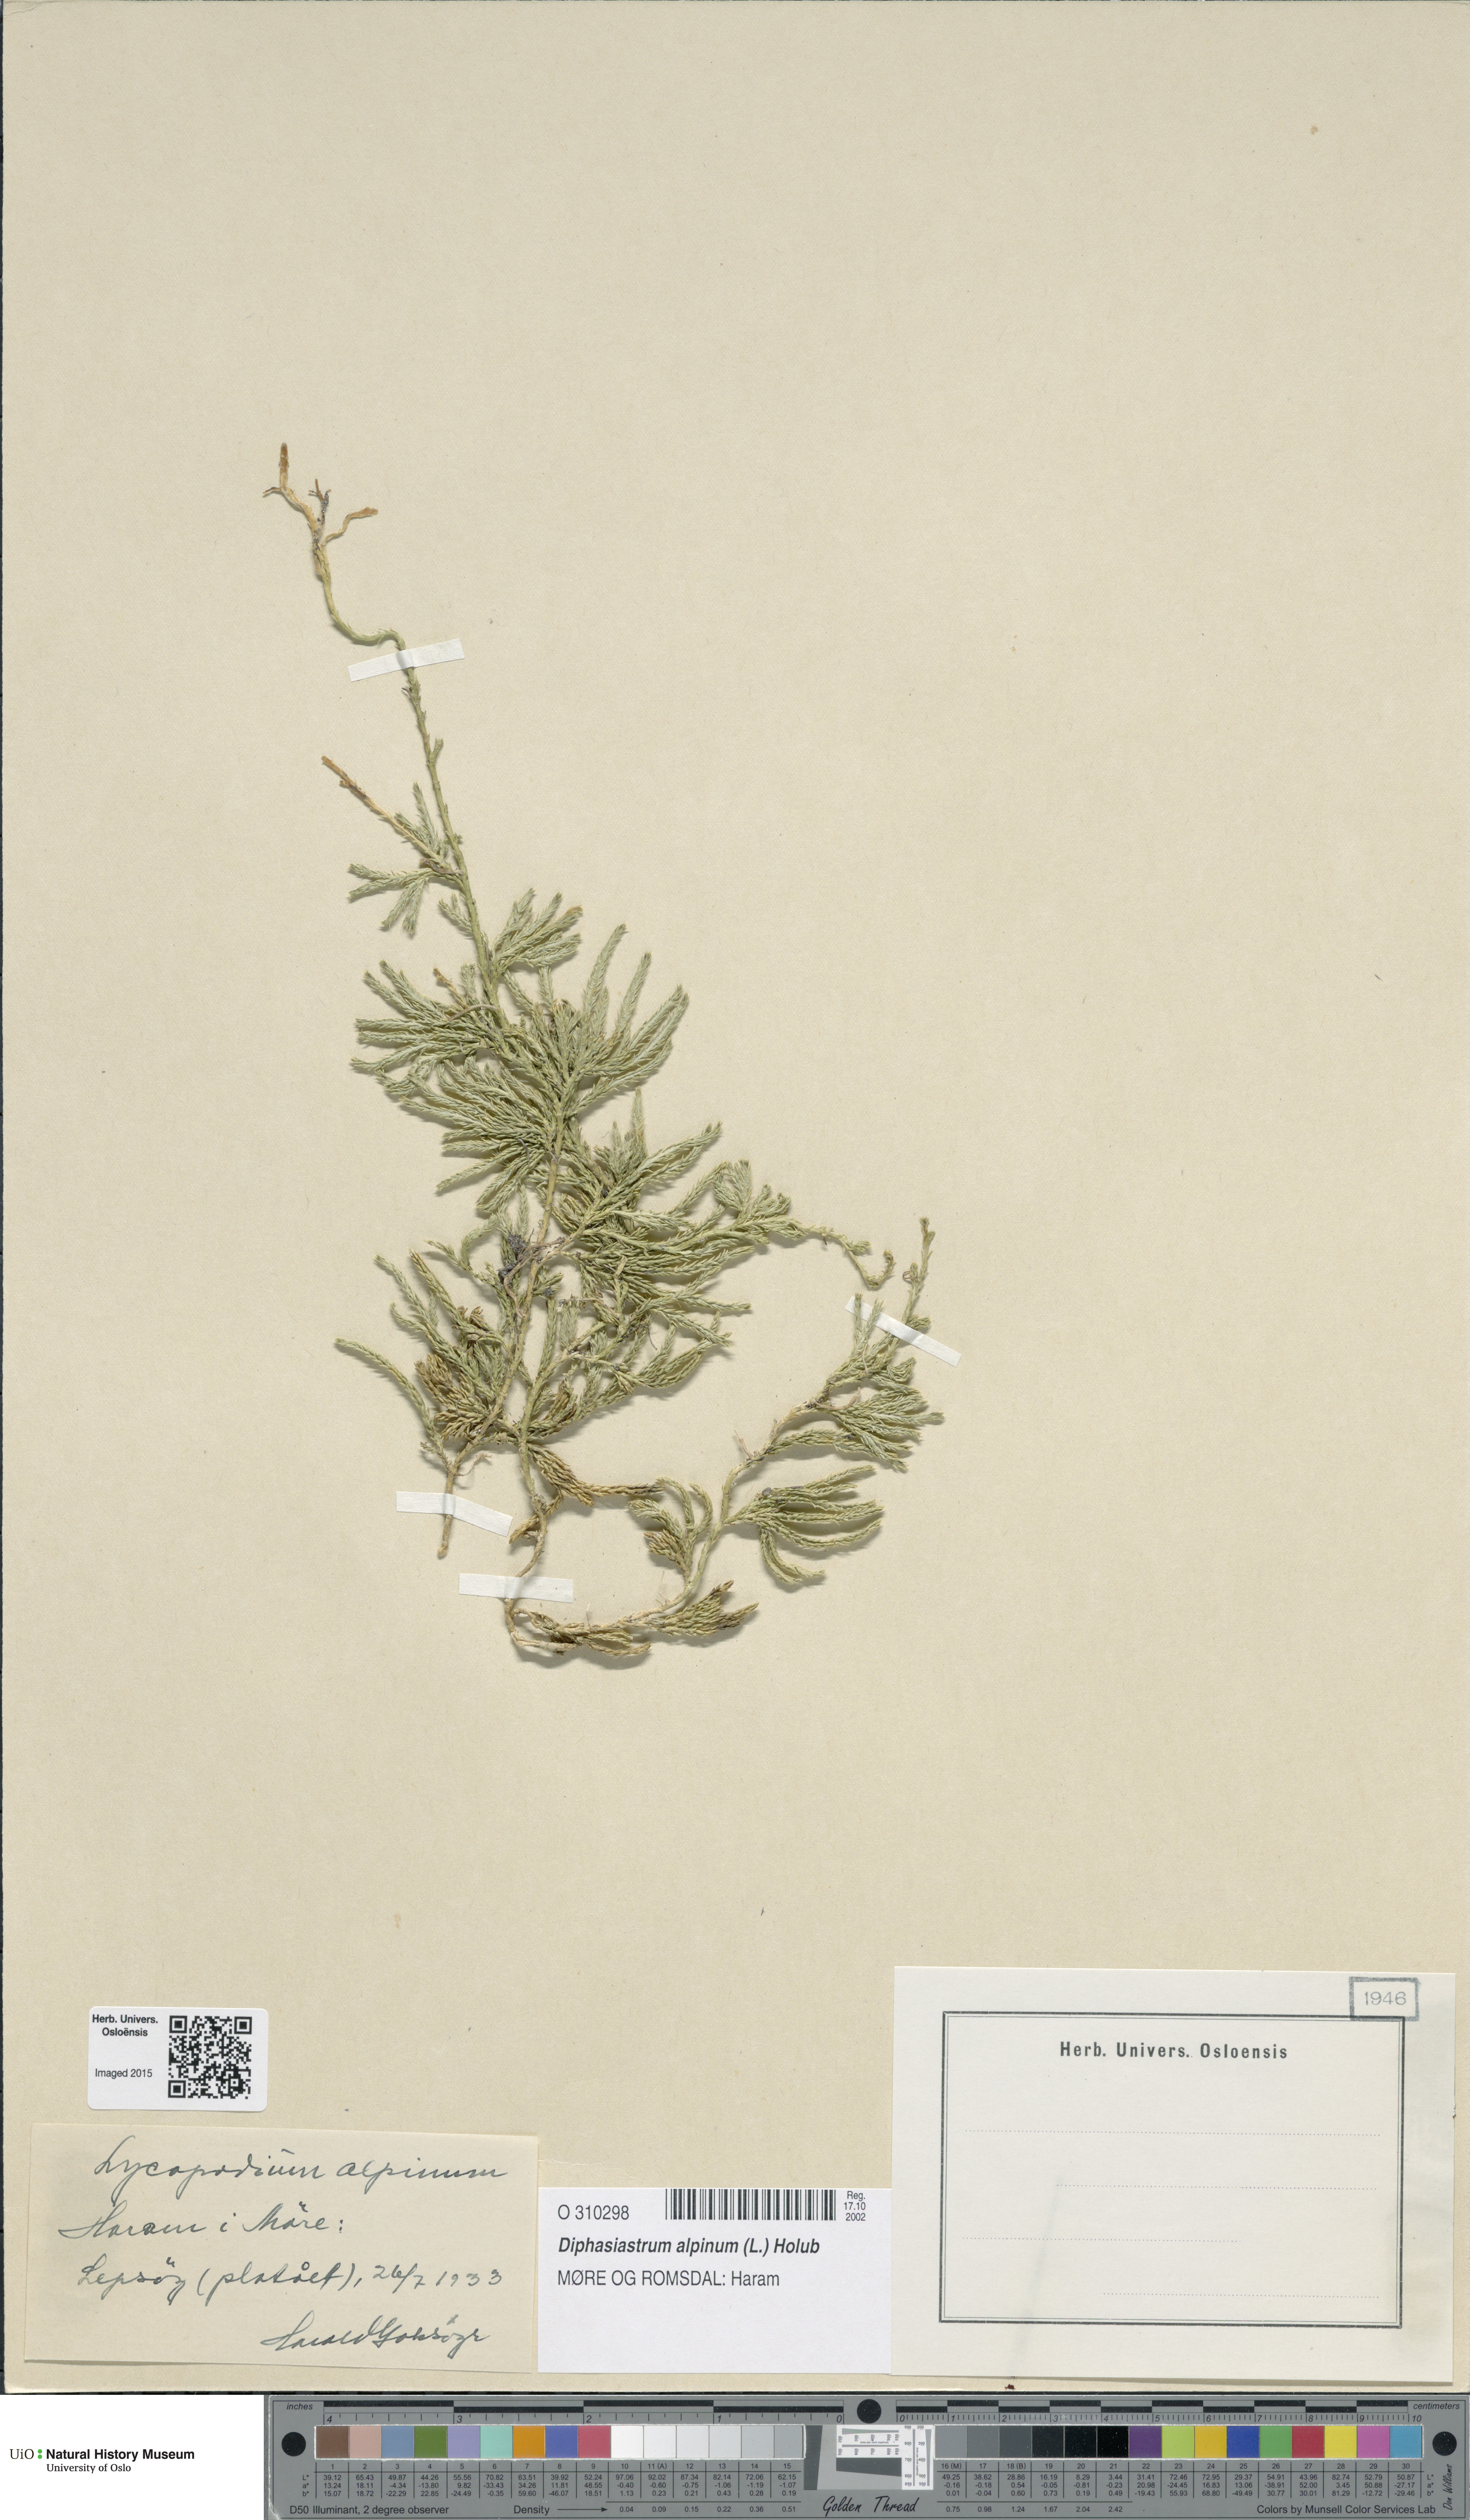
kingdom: Plantae
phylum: Tracheophyta
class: Lycopodiopsida
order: Lycopodiales
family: Lycopodiaceae
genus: Diphasiastrum
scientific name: Diphasiastrum alpinum
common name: Alpine clubmoss
